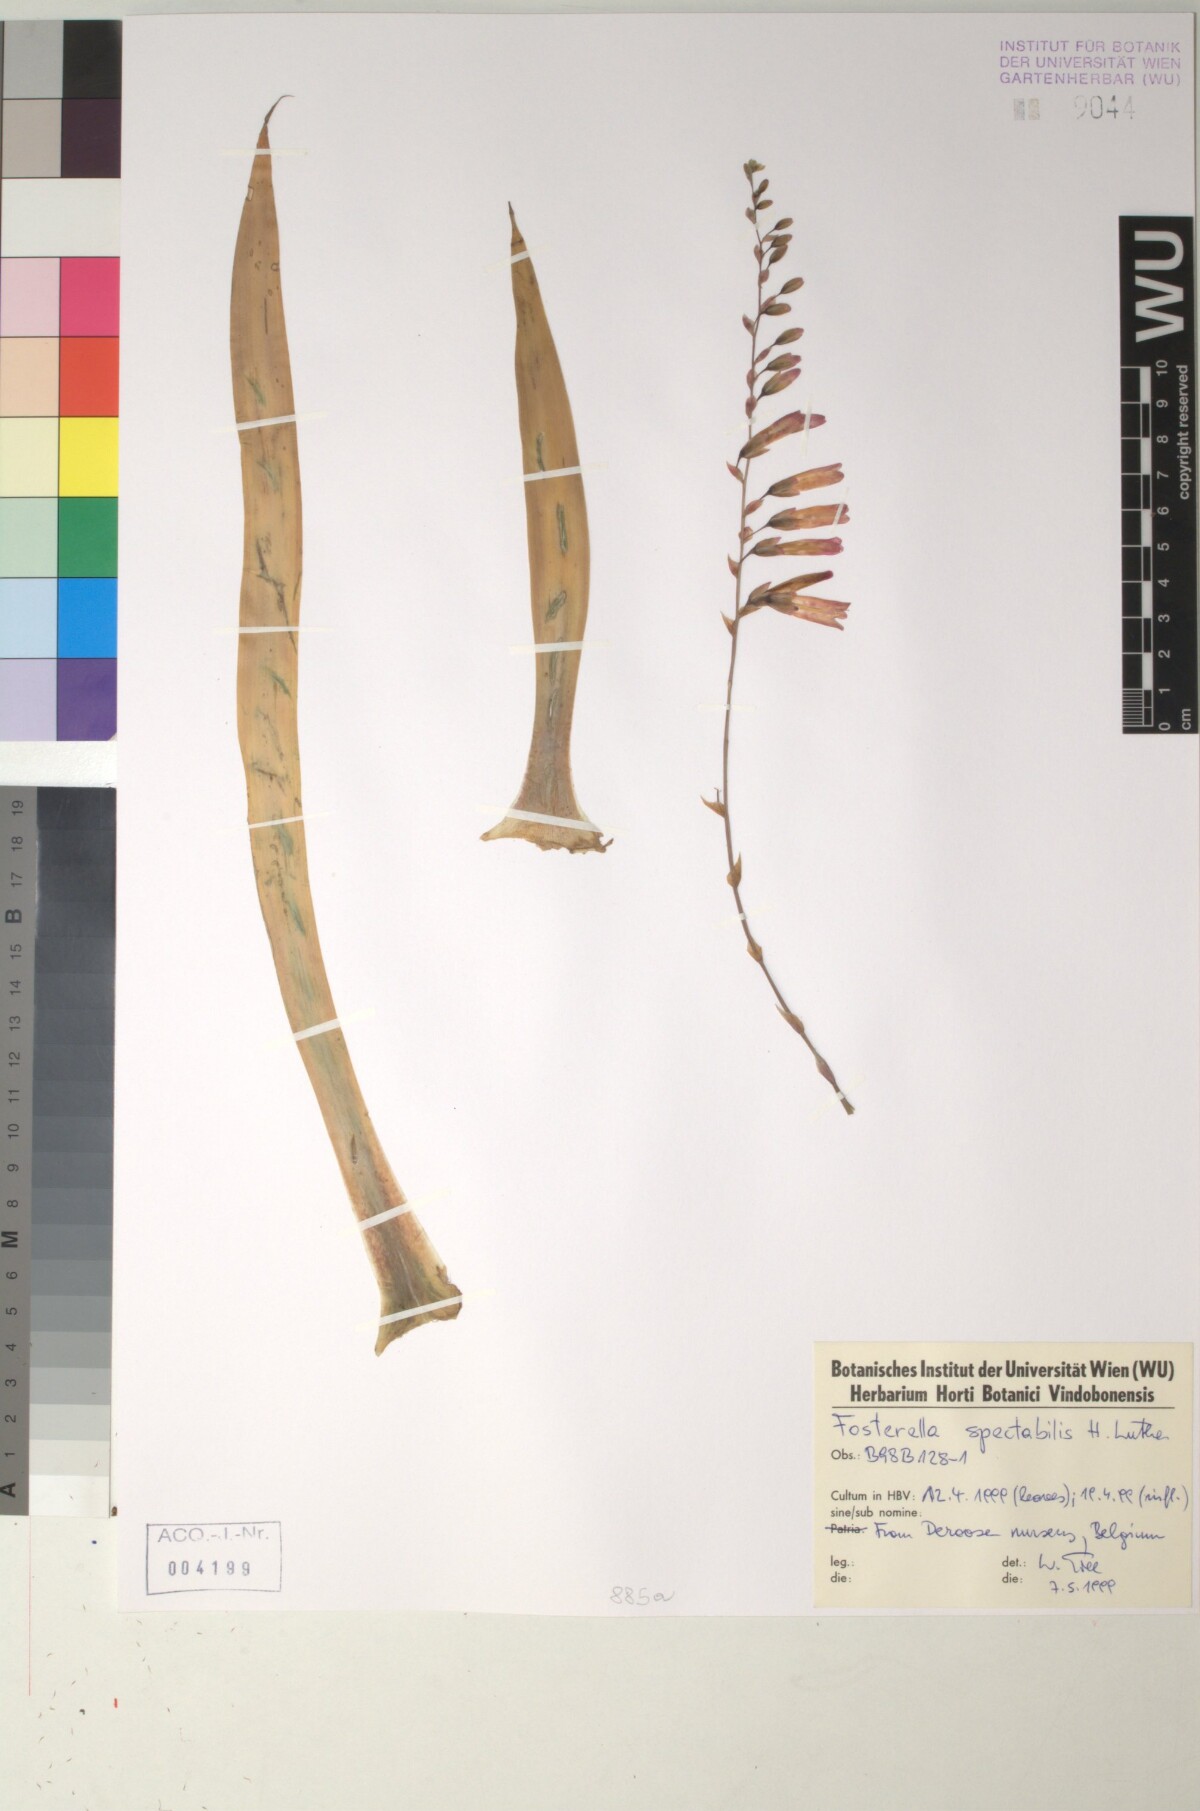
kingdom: Plantae
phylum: Tracheophyta
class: Liliopsida
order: Poales
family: Bromeliaceae
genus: Fosterella
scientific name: Fosterella spectabilis
